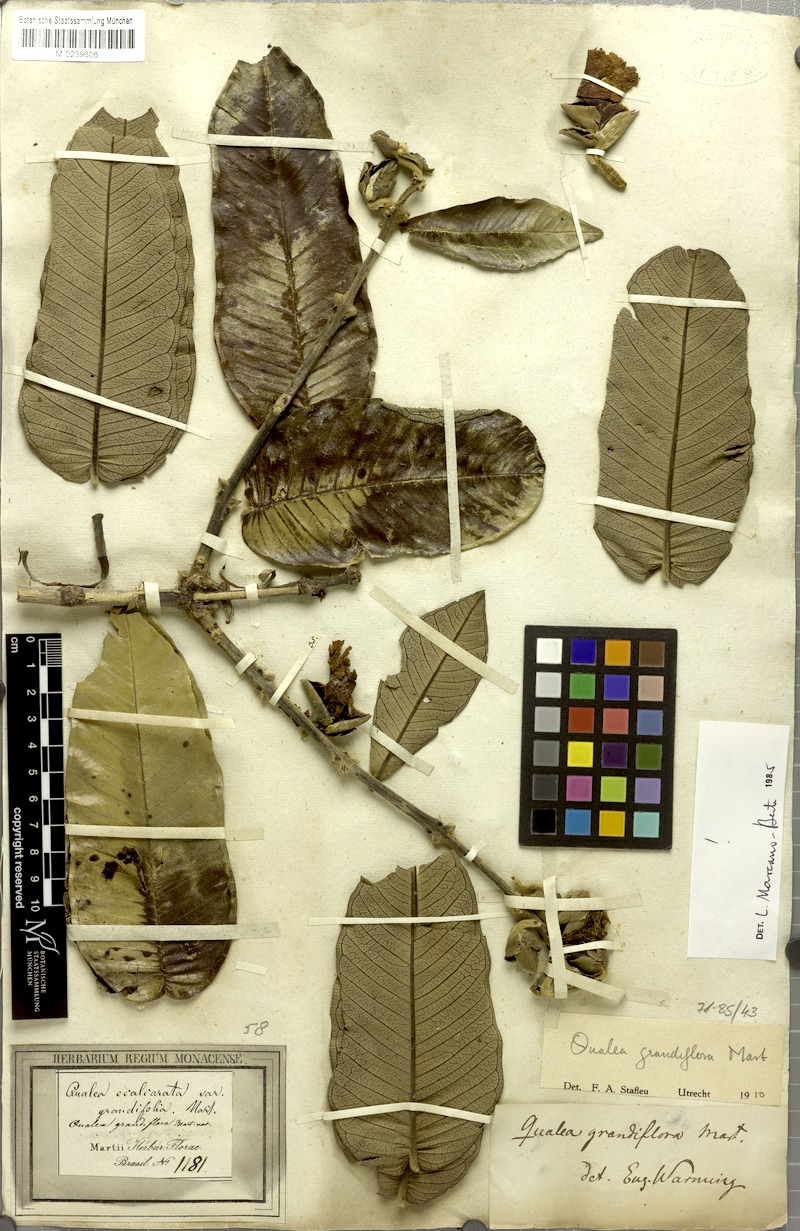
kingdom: Plantae
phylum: Tracheophyta
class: Magnoliopsida
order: Myrtales
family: Vochysiaceae
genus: Qualea
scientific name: Qualea grandiflora
